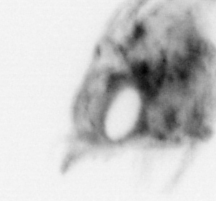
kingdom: Animalia
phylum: Arthropoda
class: Malacostraca
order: Decapoda
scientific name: Decapoda
